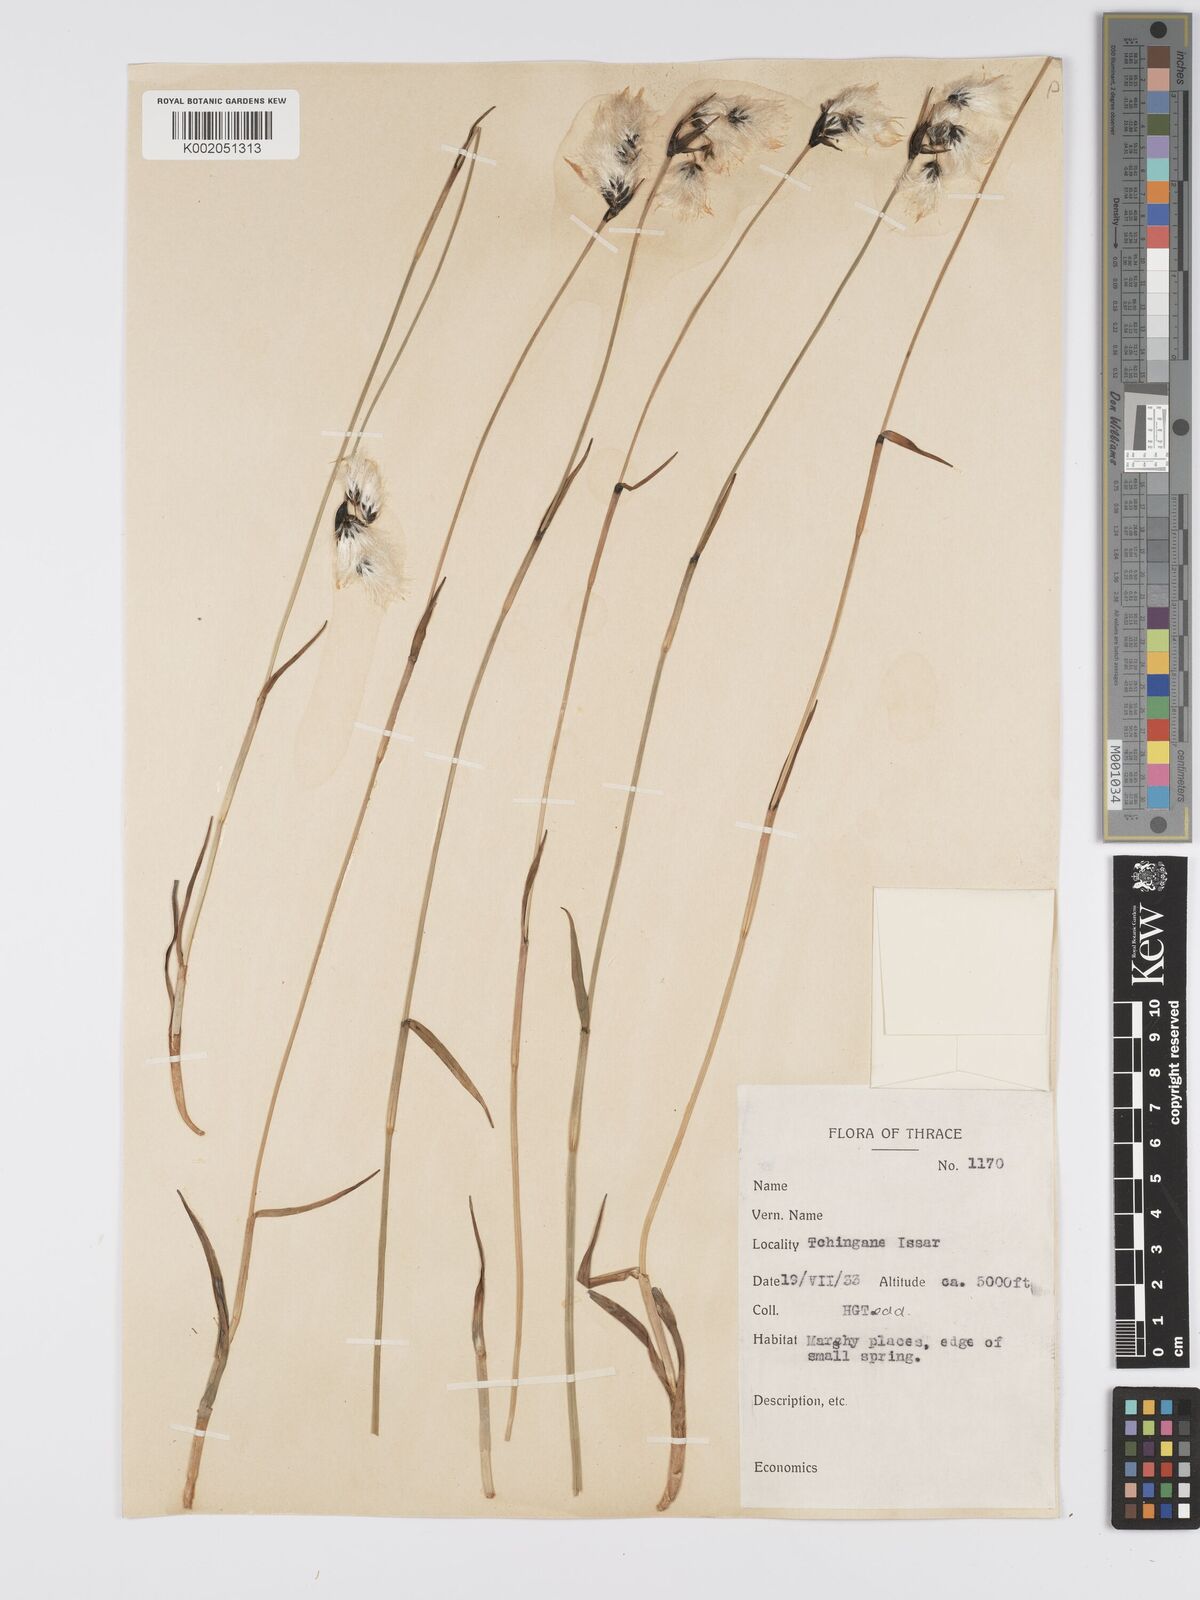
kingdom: Plantae
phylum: Tracheophyta
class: Liliopsida
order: Poales
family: Cyperaceae
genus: Eriophorum
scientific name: Eriophorum latifolium
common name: Broad-leaved cottongrass
